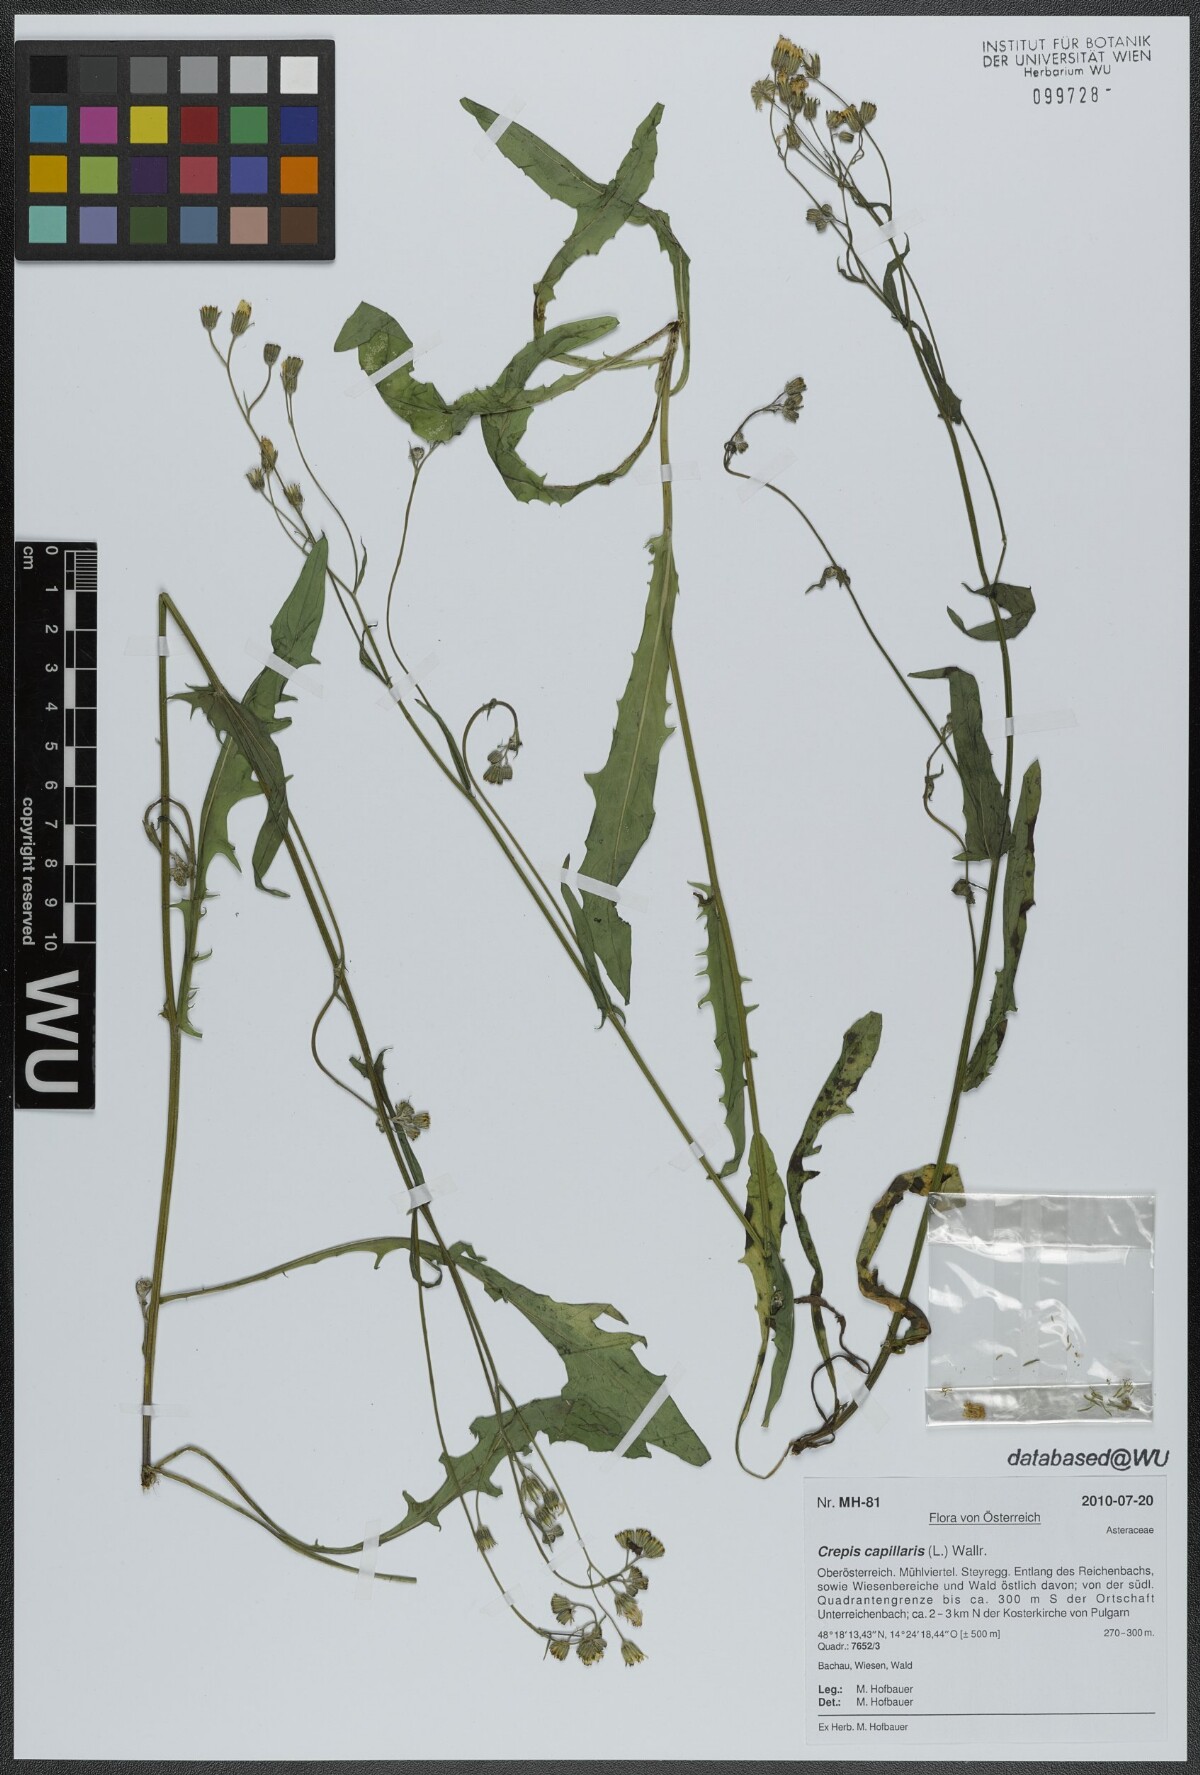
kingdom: Plantae
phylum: Tracheophyta
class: Magnoliopsida
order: Asterales
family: Asteraceae
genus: Crepis
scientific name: Crepis capillaris
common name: Smooth hawksbeard
